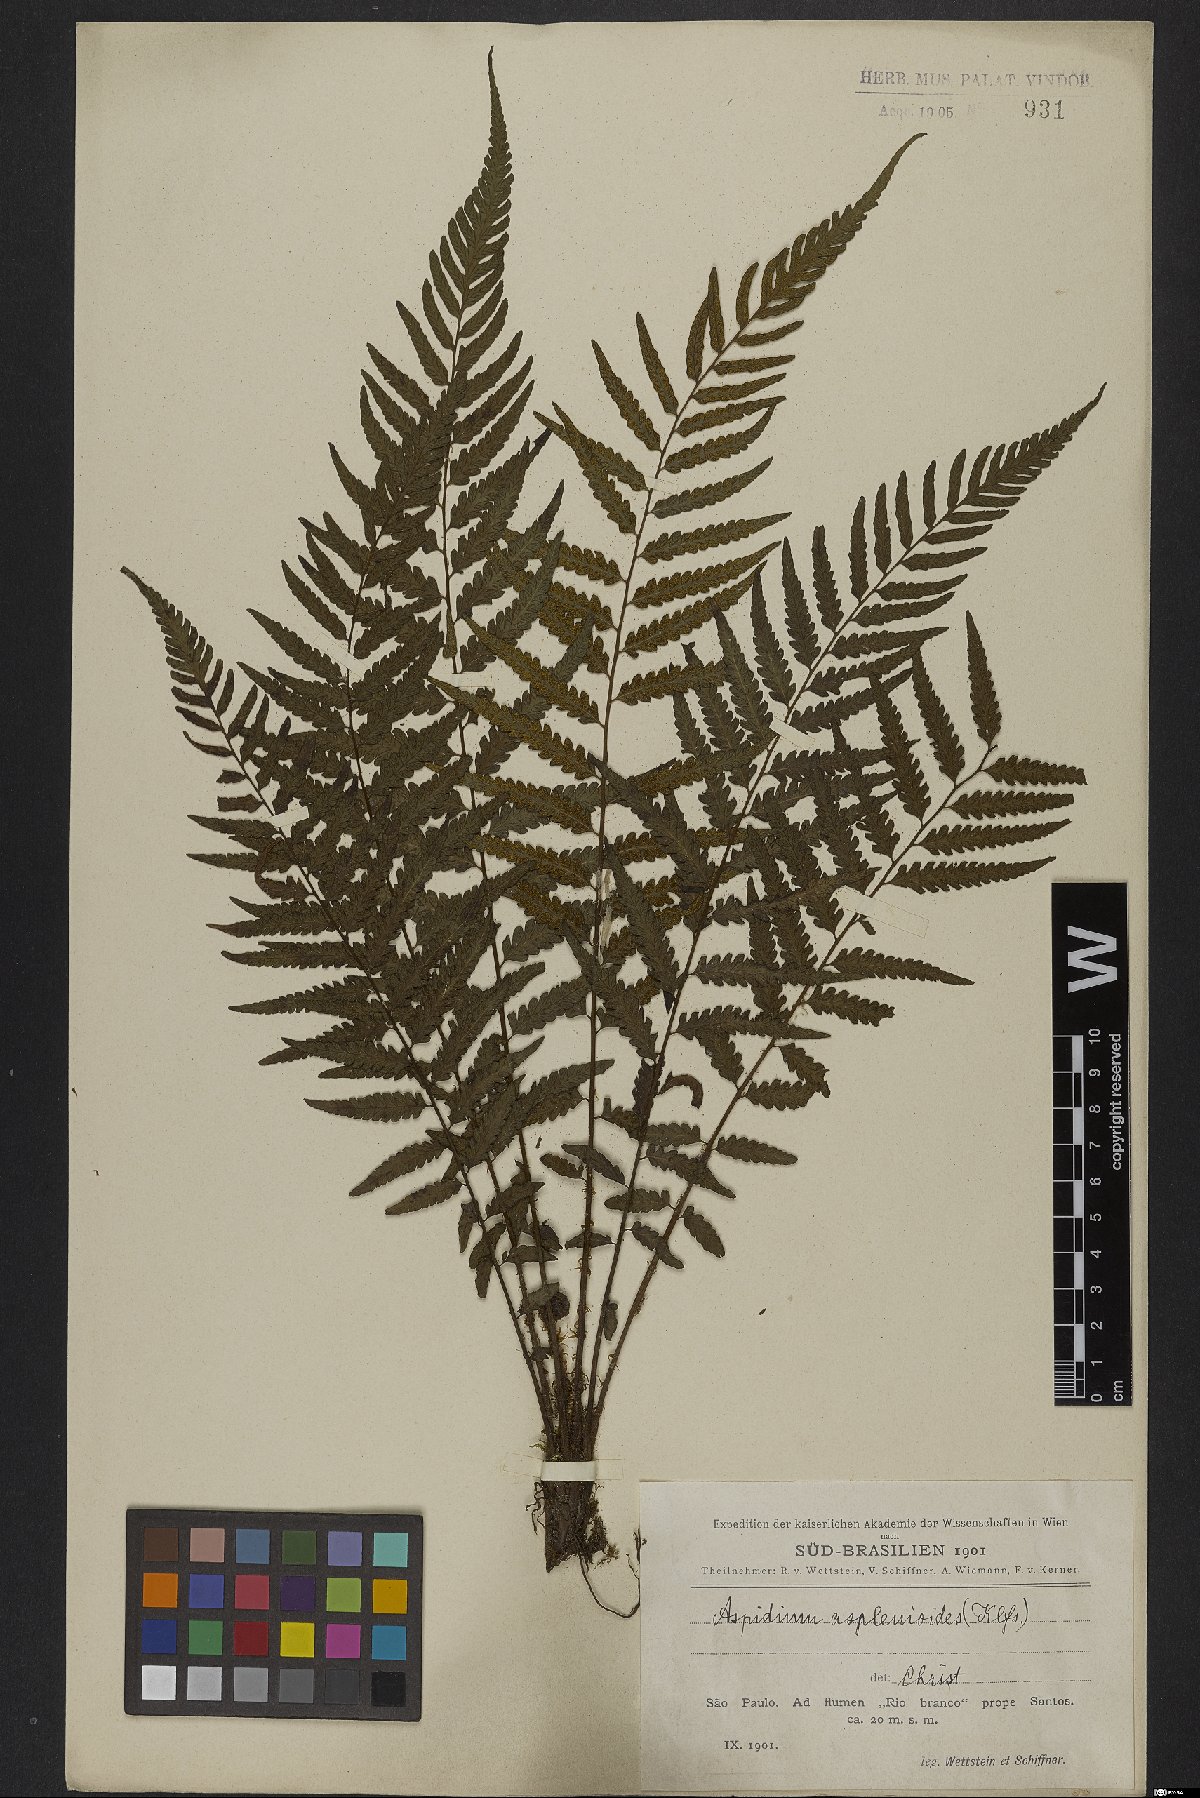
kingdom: Plantae
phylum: Tracheophyta
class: Polypodiopsida
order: Polypodiales
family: Thelypteridaceae
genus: Amauropelta
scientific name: Amauropelta aspidioides
